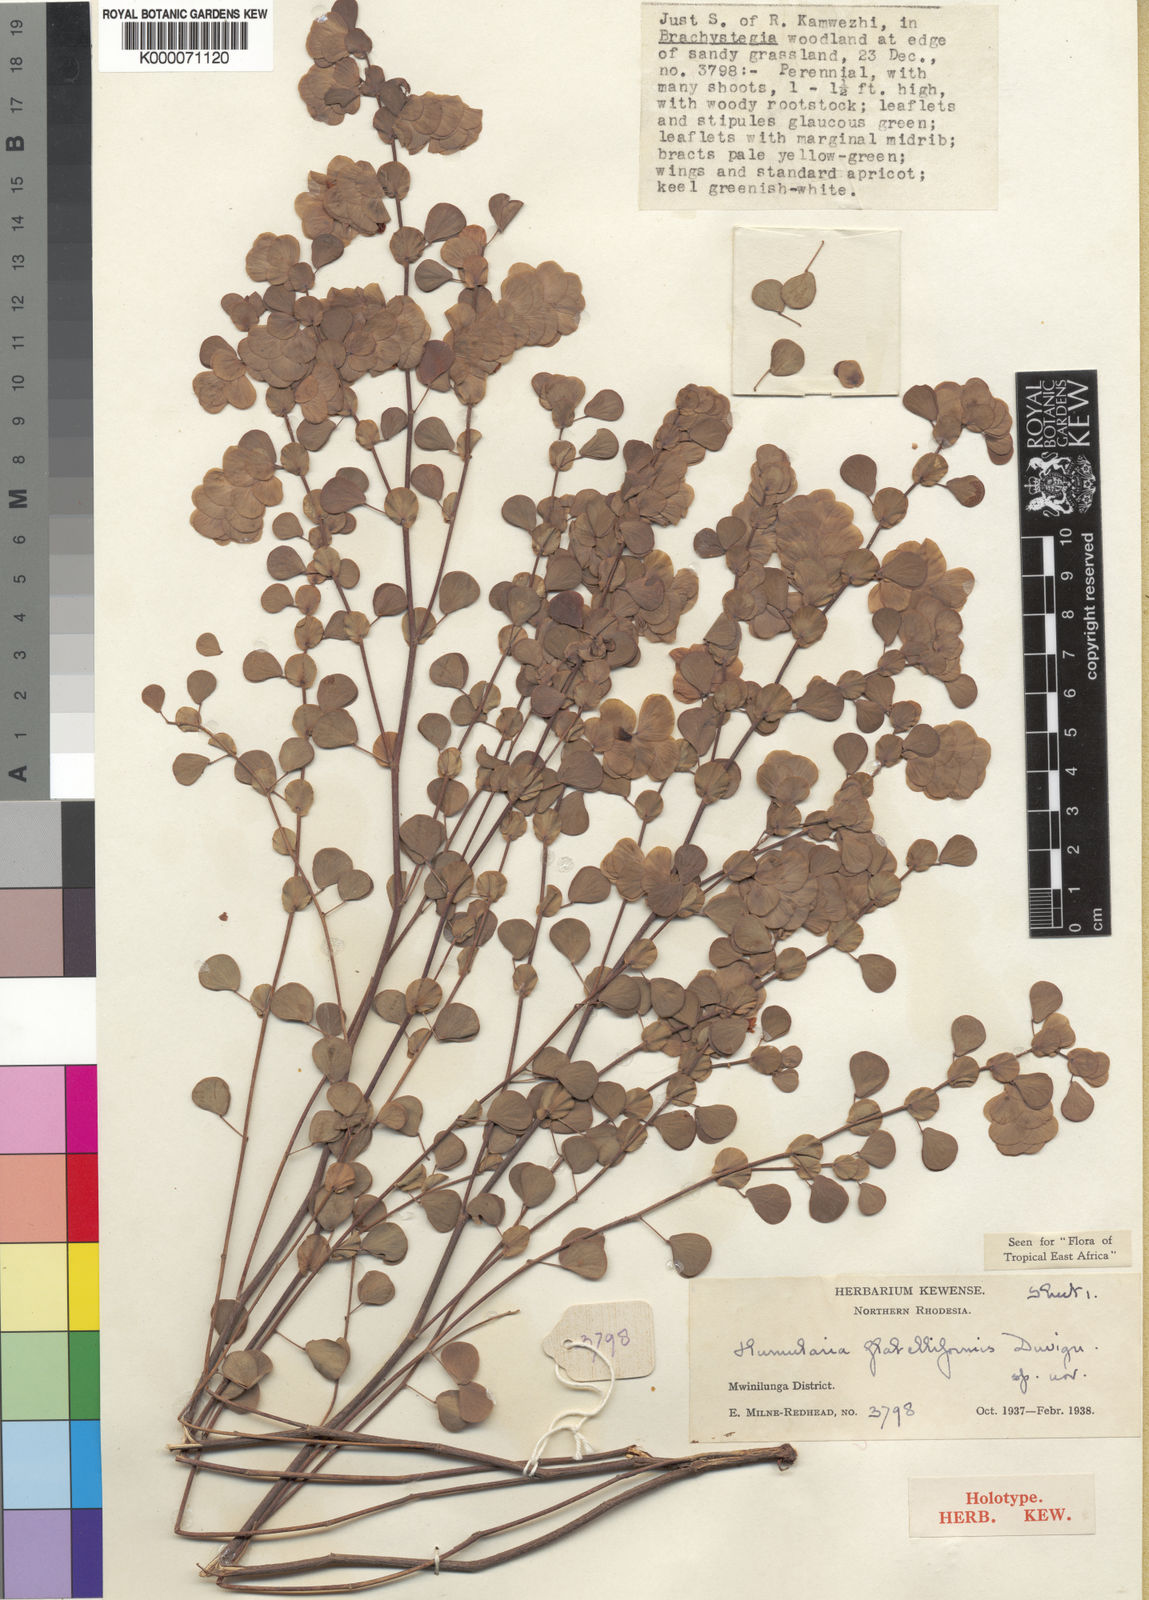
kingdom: Plantae
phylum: Tracheophyta
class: Magnoliopsida
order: Fabales
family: Fabaceae
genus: Humularia
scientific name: Humularia minima
